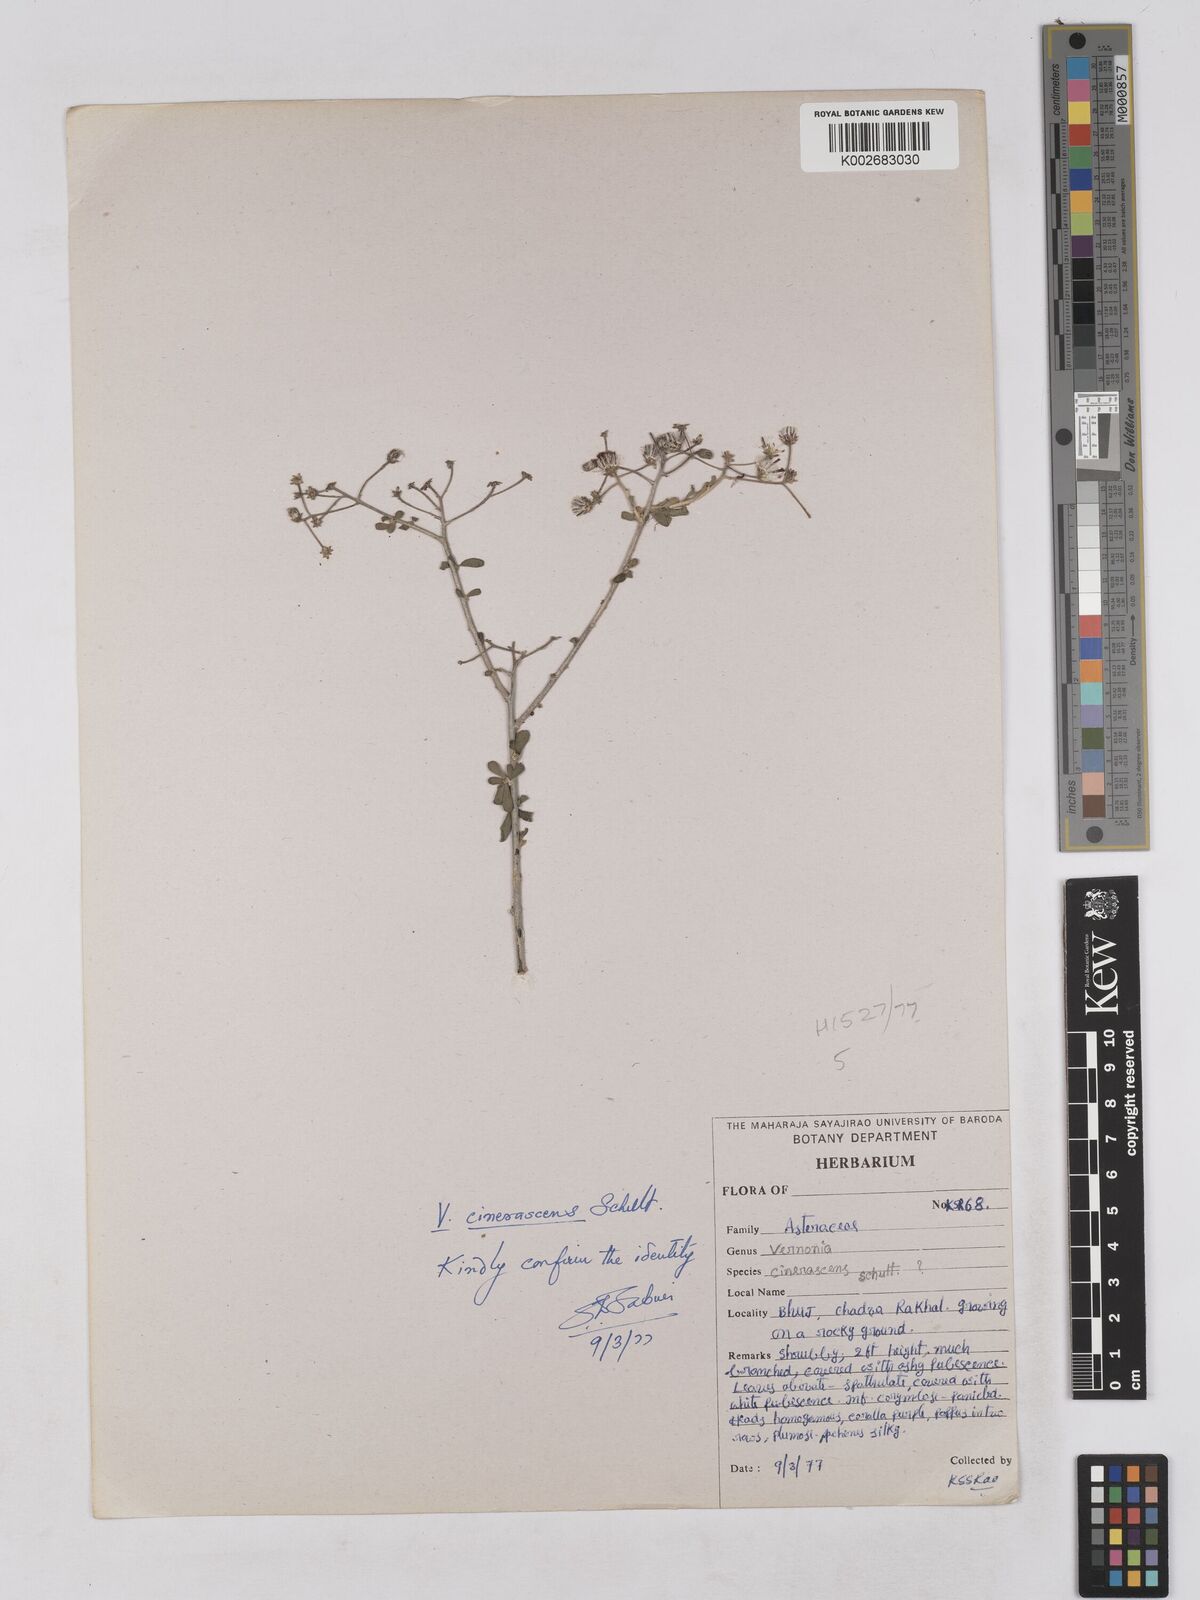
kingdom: Plantae
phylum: Tracheophyta
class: Magnoliopsida
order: Asterales
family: Asteraceae
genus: Orbivestus
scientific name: Orbivestus cinerascens
